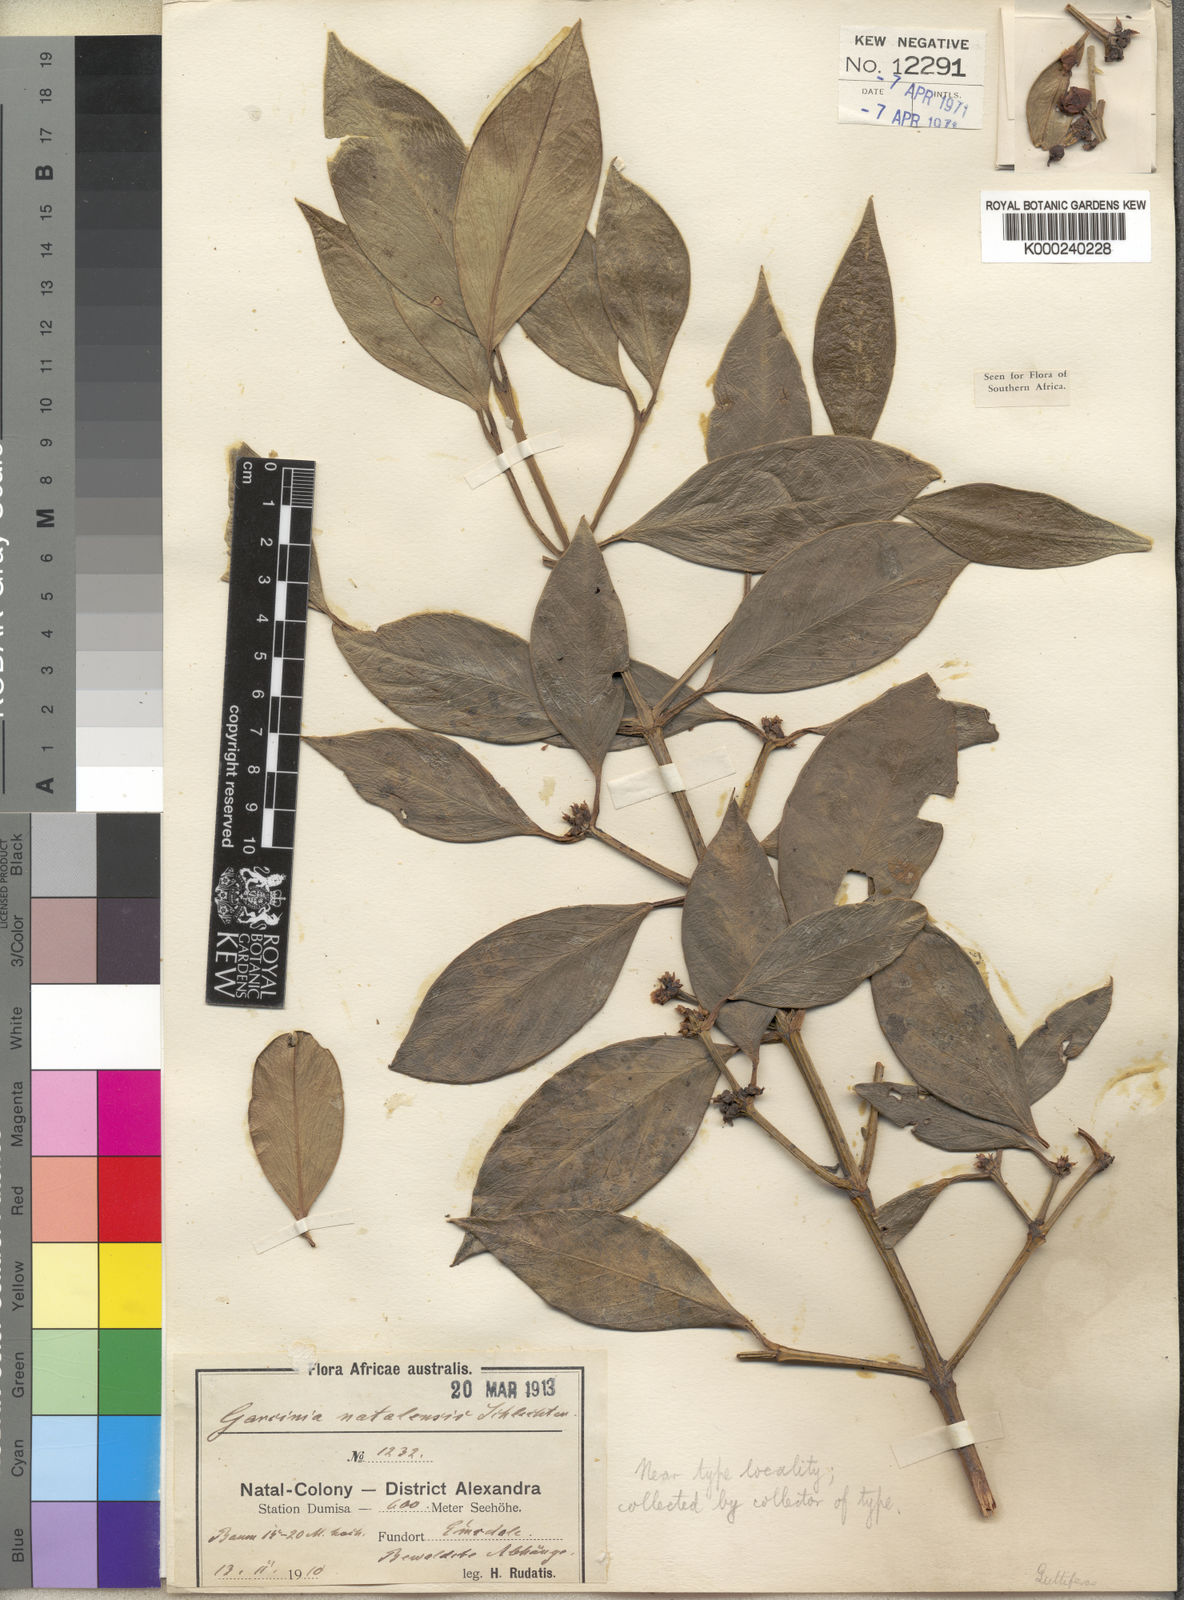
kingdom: Plantae
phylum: Tracheophyta
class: Magnoliopsida
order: Malpighiales
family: Clusiaceae
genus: Garcinia
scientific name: Garcinia
